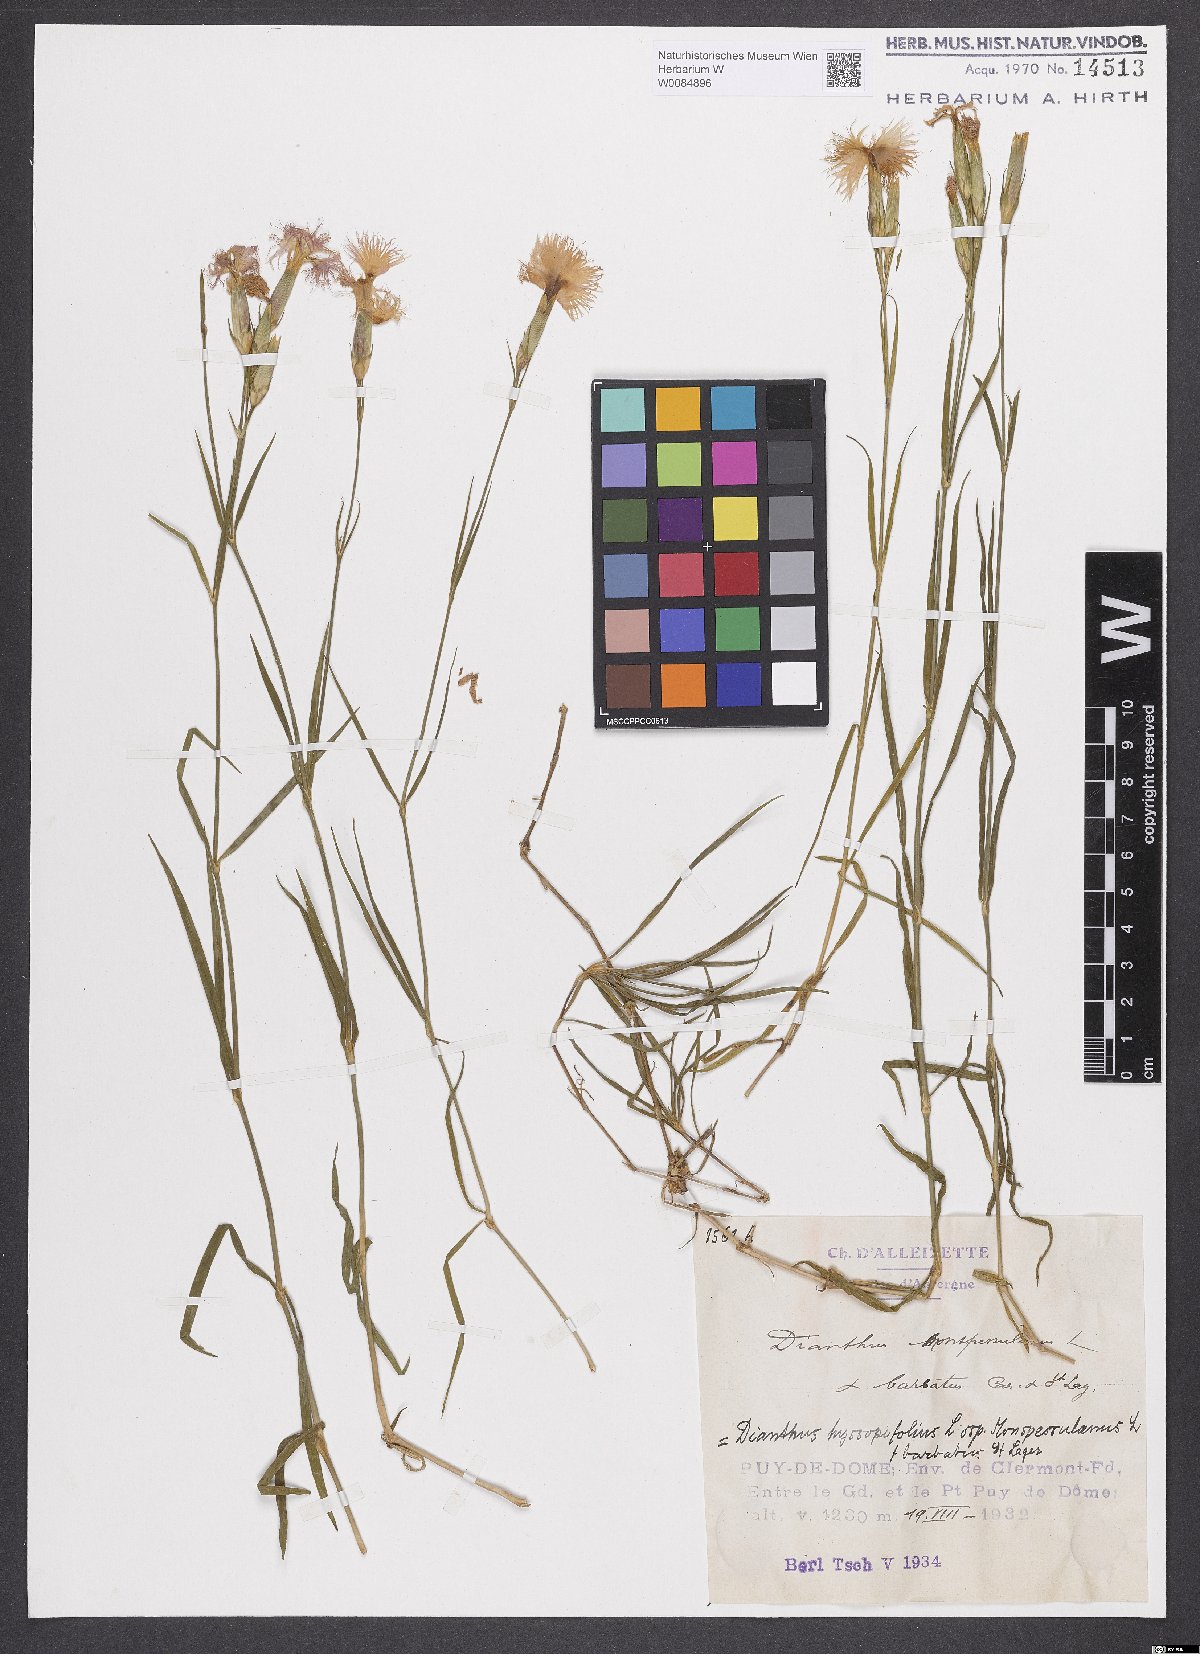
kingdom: Plantae
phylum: Tracheophyta
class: Magnoliopsida
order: Caryophyllales
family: Caryophyllaceae
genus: Dianthus
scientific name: Dianthus hyssopifolius
